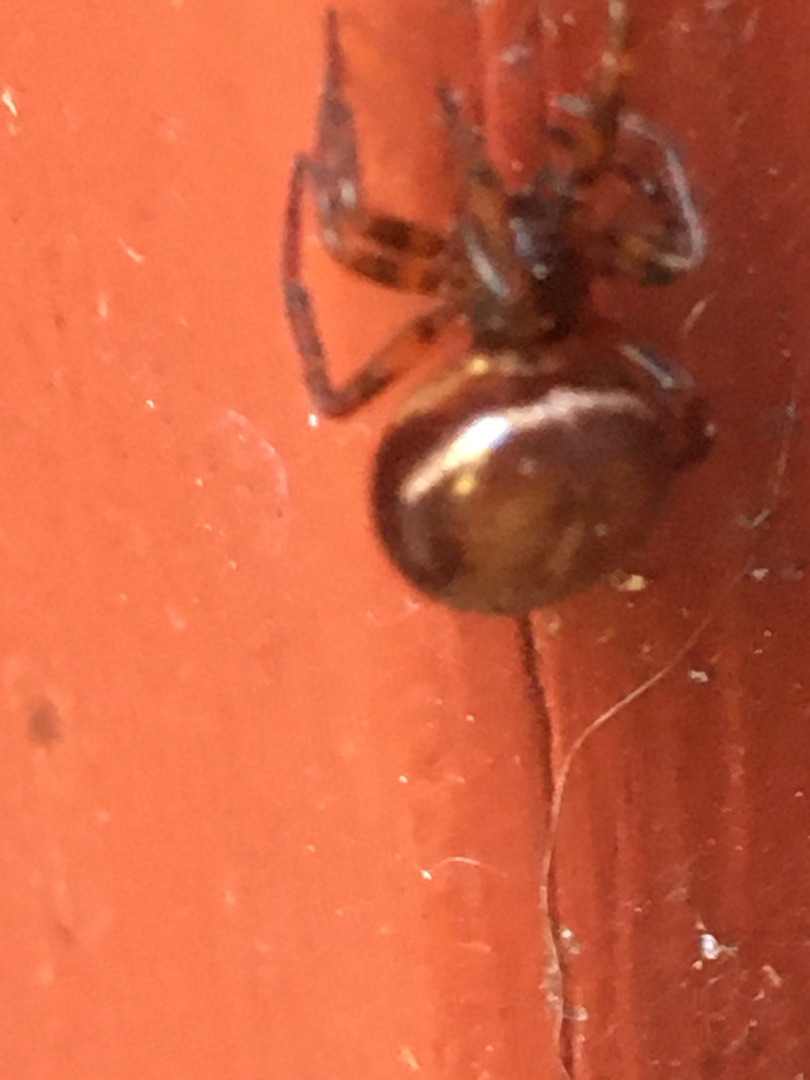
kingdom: Animalia
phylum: Arthropoda
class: Arachnida
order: Araneae
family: Theridiidae
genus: Steatoda
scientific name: Steatoda bipunctata
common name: Fedtedderkop
